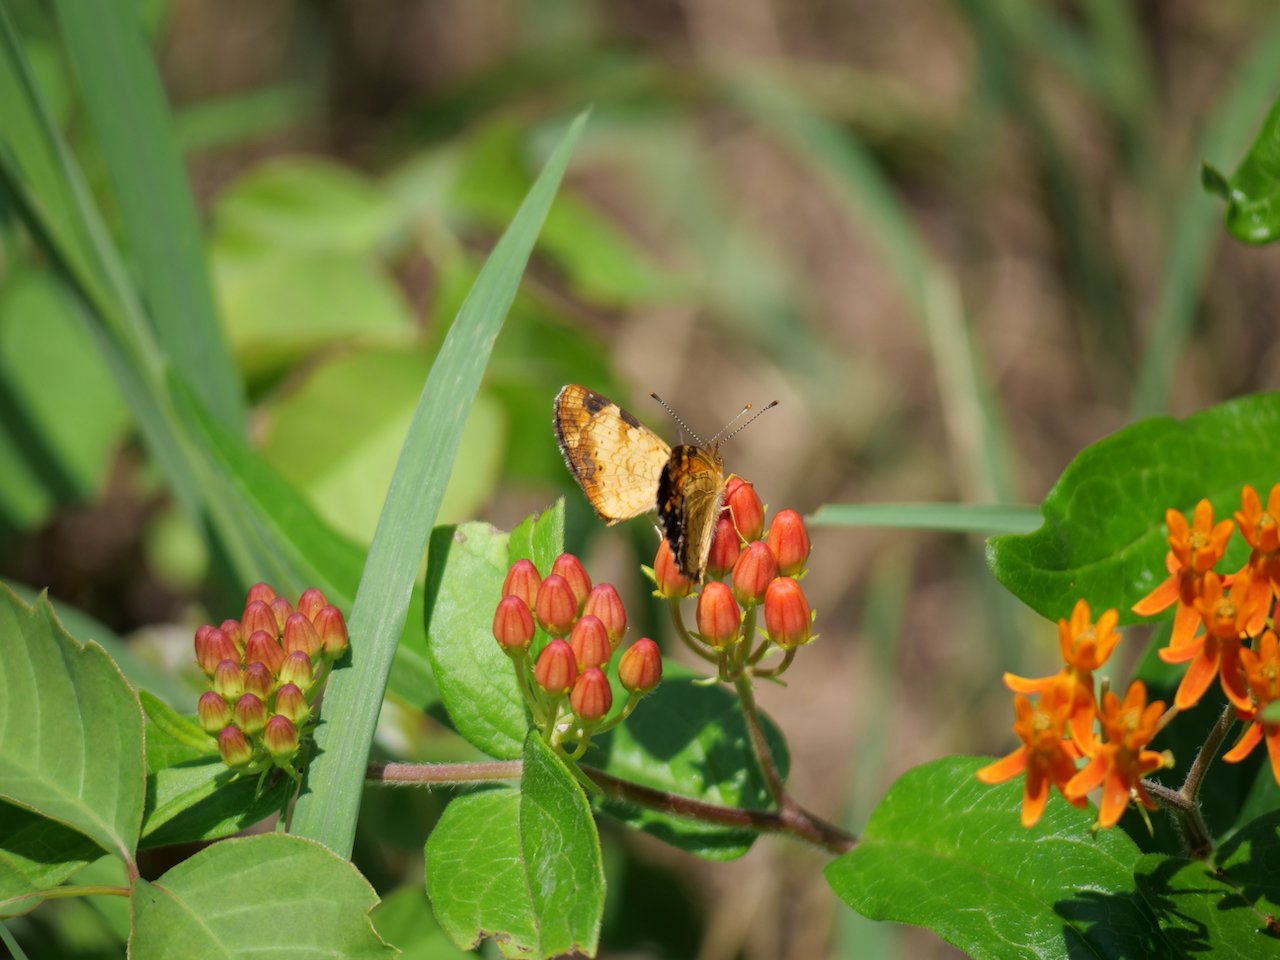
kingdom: Animalia
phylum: Arthropoda
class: Insecta
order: Lepidoptera
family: Nymphalidae
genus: Phyciodes
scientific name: Phyciodes tharos
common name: Northern Crescent
